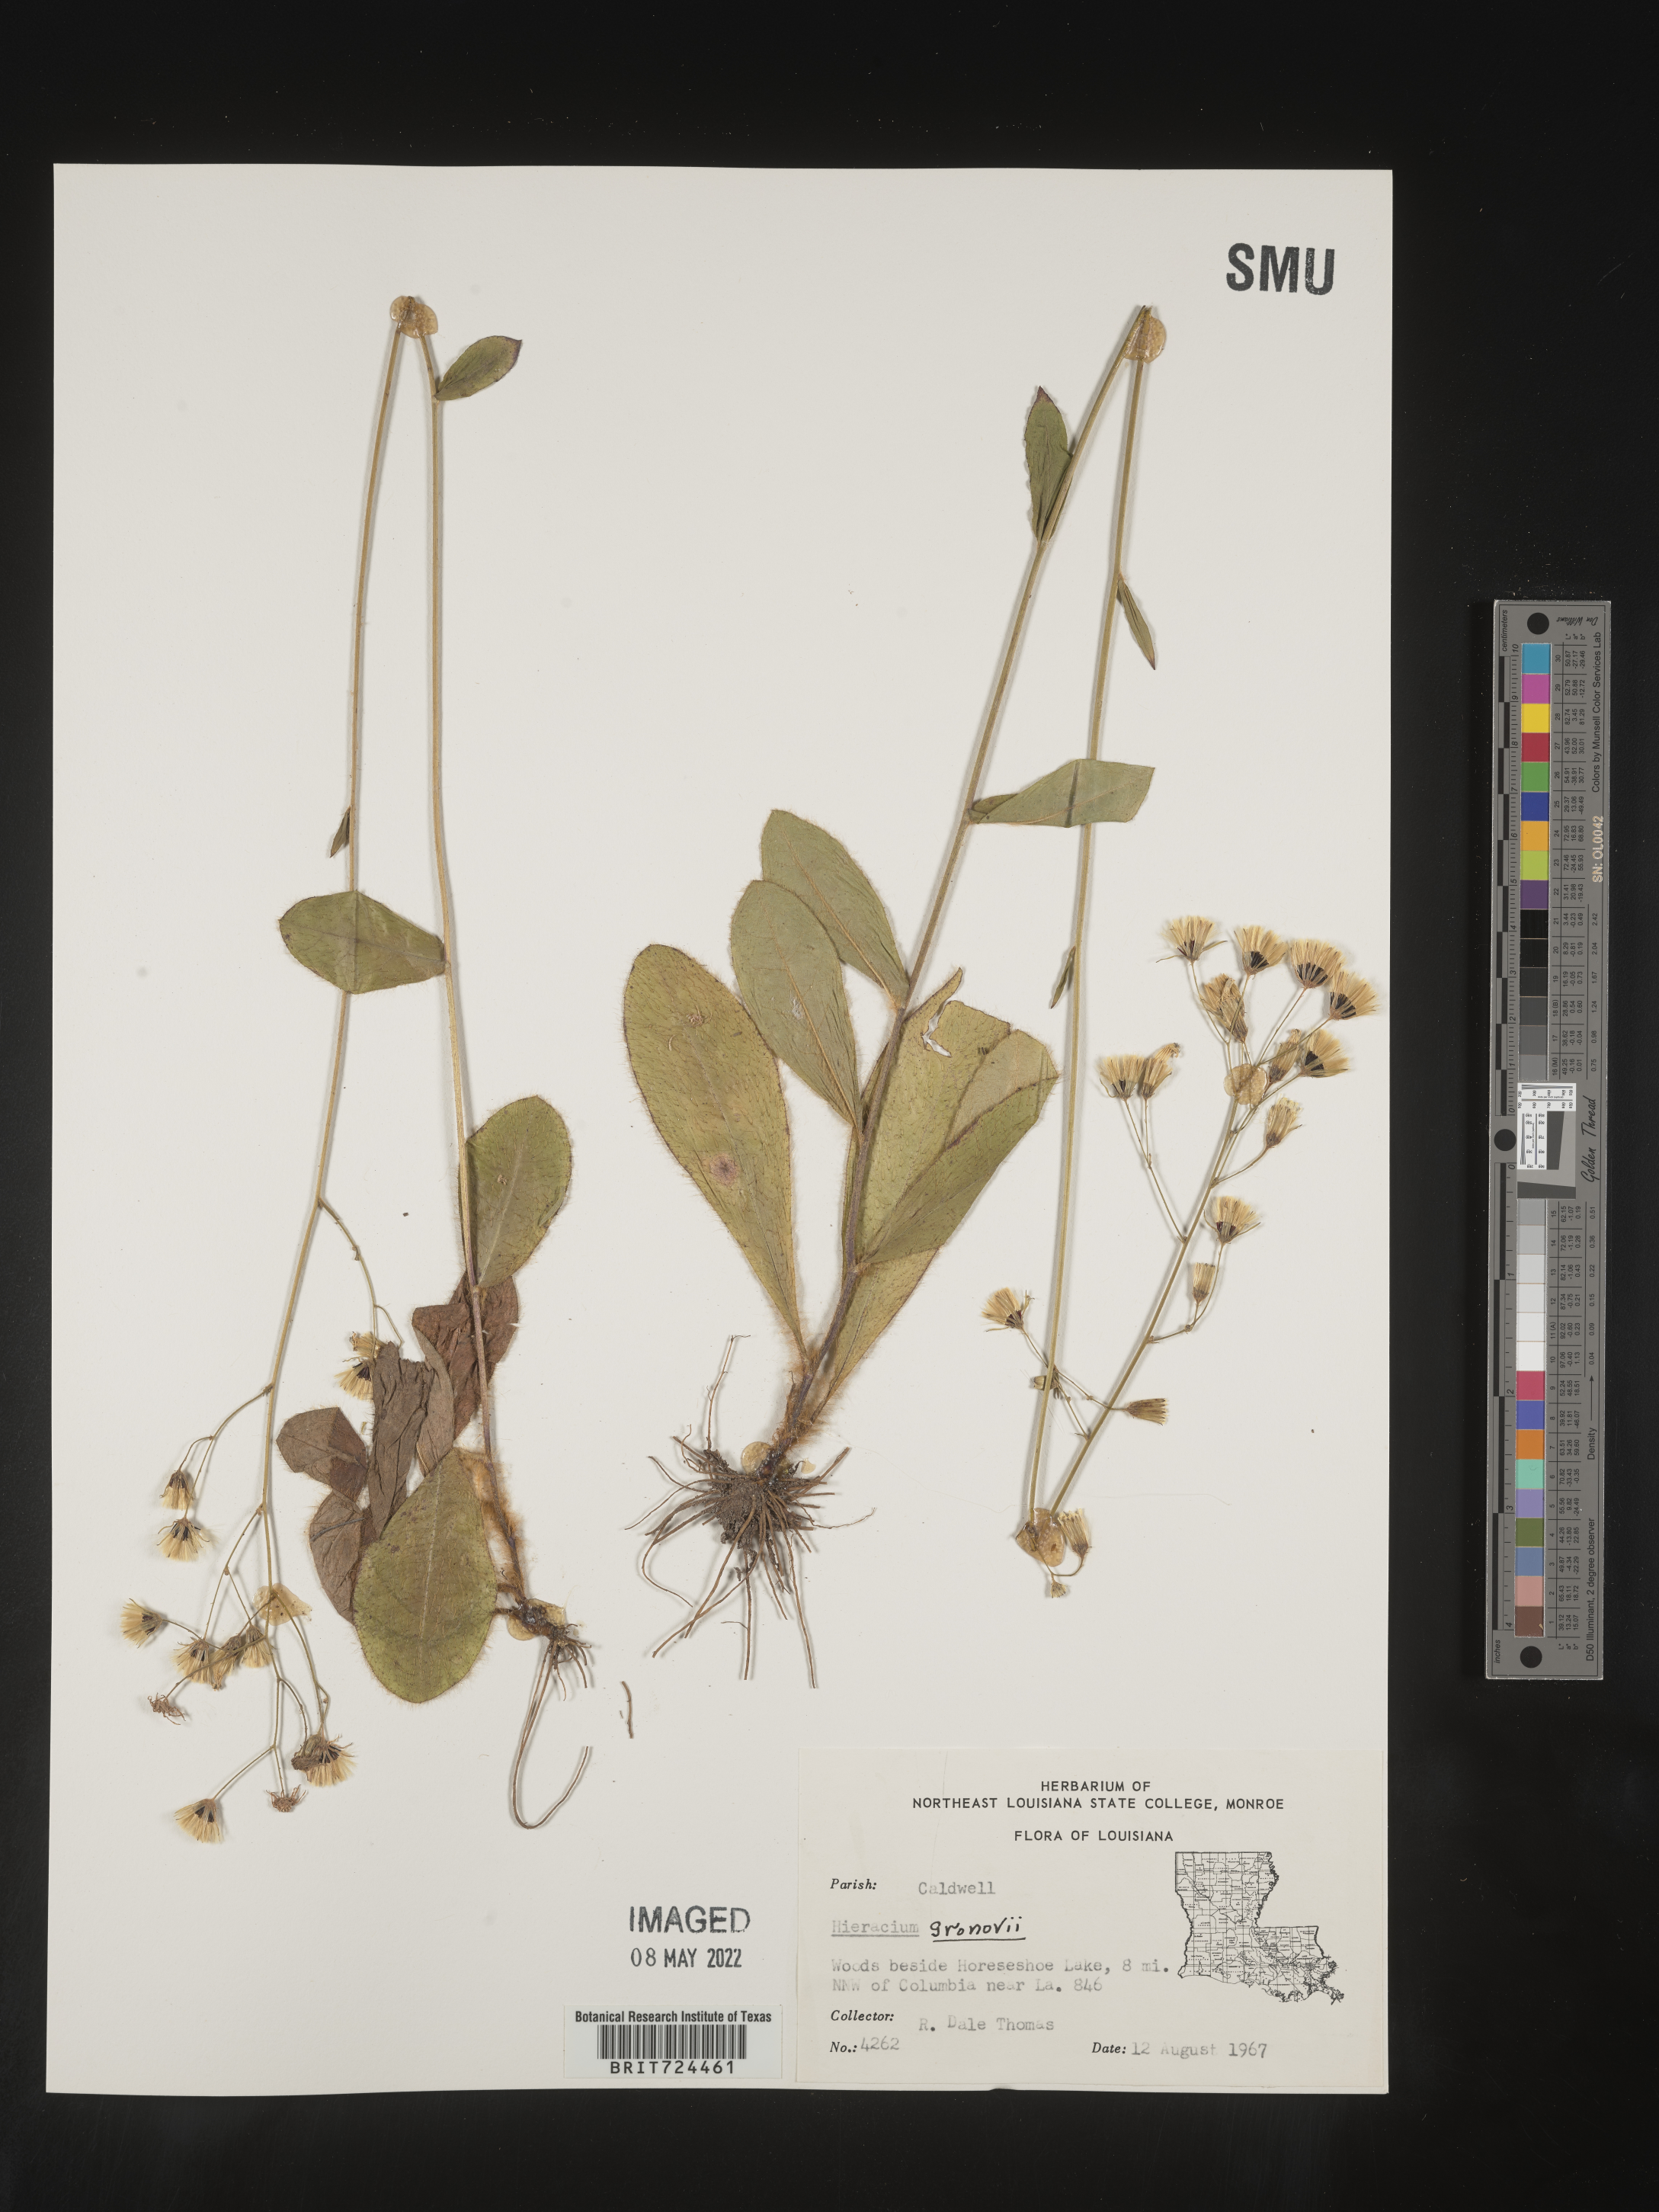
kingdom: Plantae
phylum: Tracheophyta
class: Magnoliopsida
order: Asterales
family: Asteraceae
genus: Hieracium
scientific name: Hieracium gronovii
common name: Beaked hawkweed
